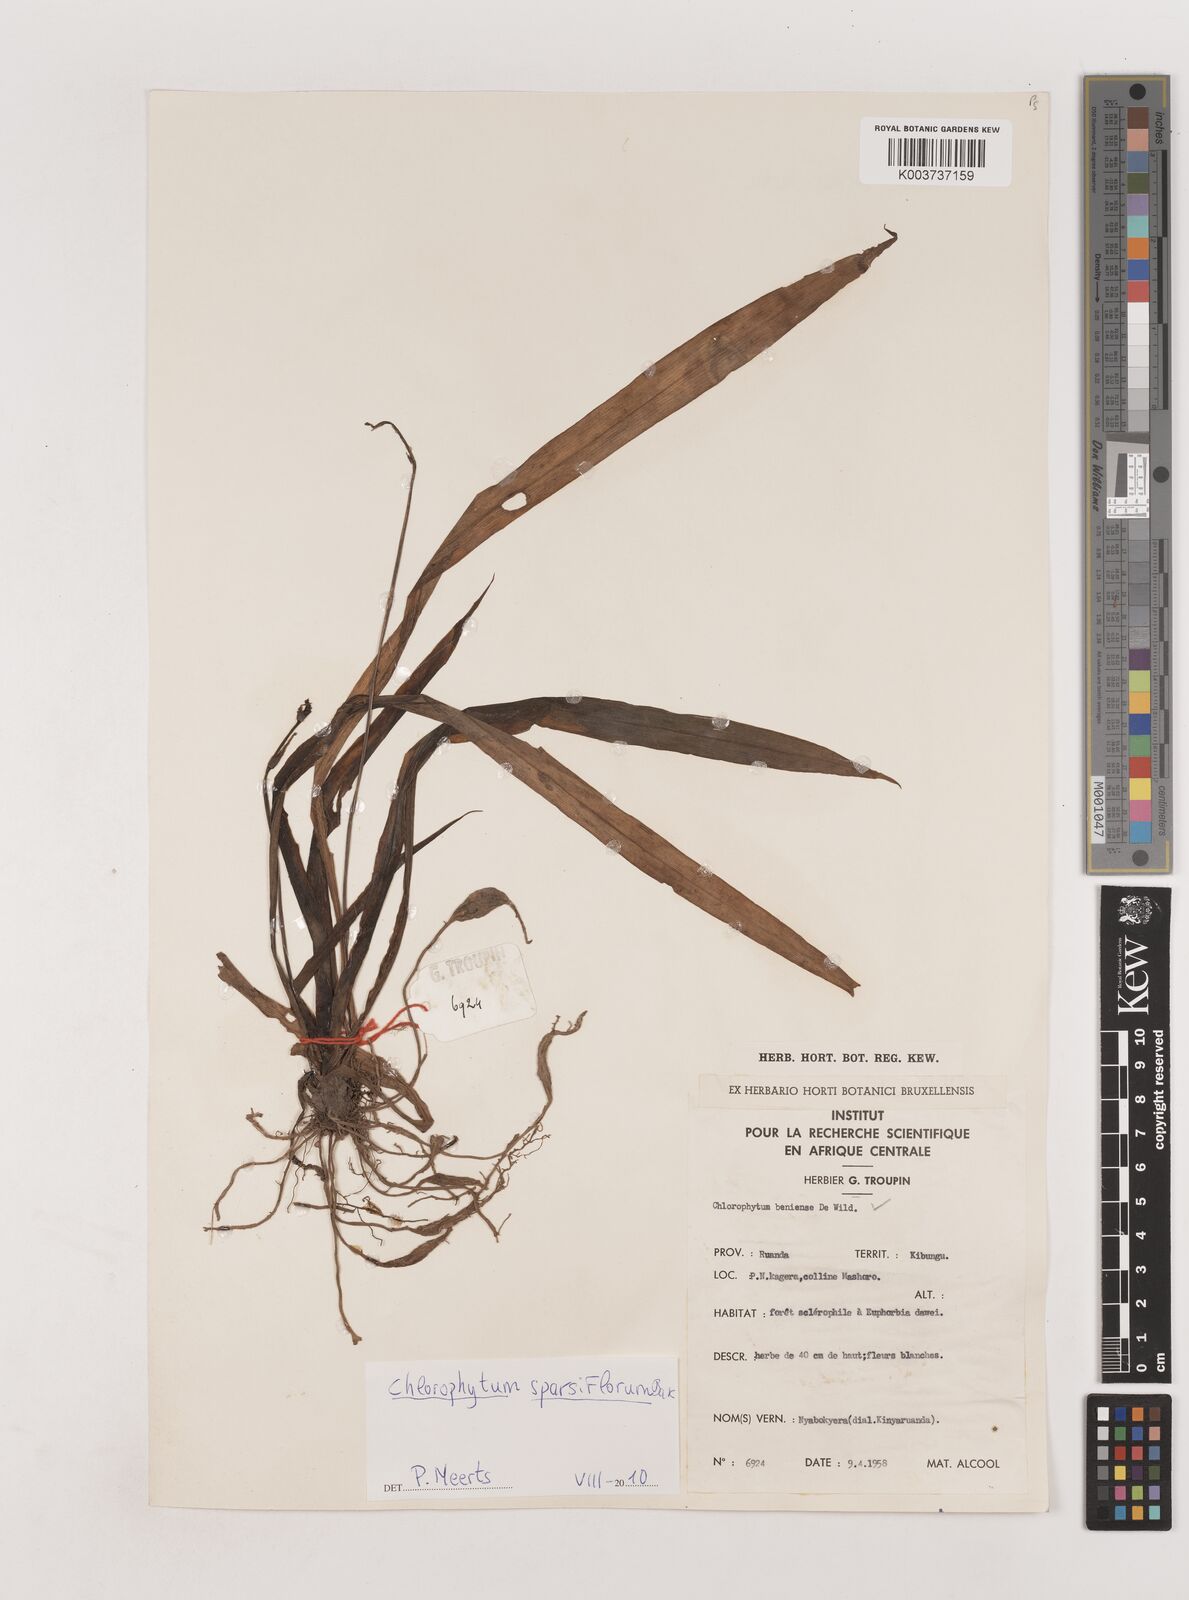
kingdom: Plantae
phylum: Tracheophyta
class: Liliopsida
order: Asparagales
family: Asparagaceae
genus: Chlorophytum
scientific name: Chlorophytum sparsiflorum
